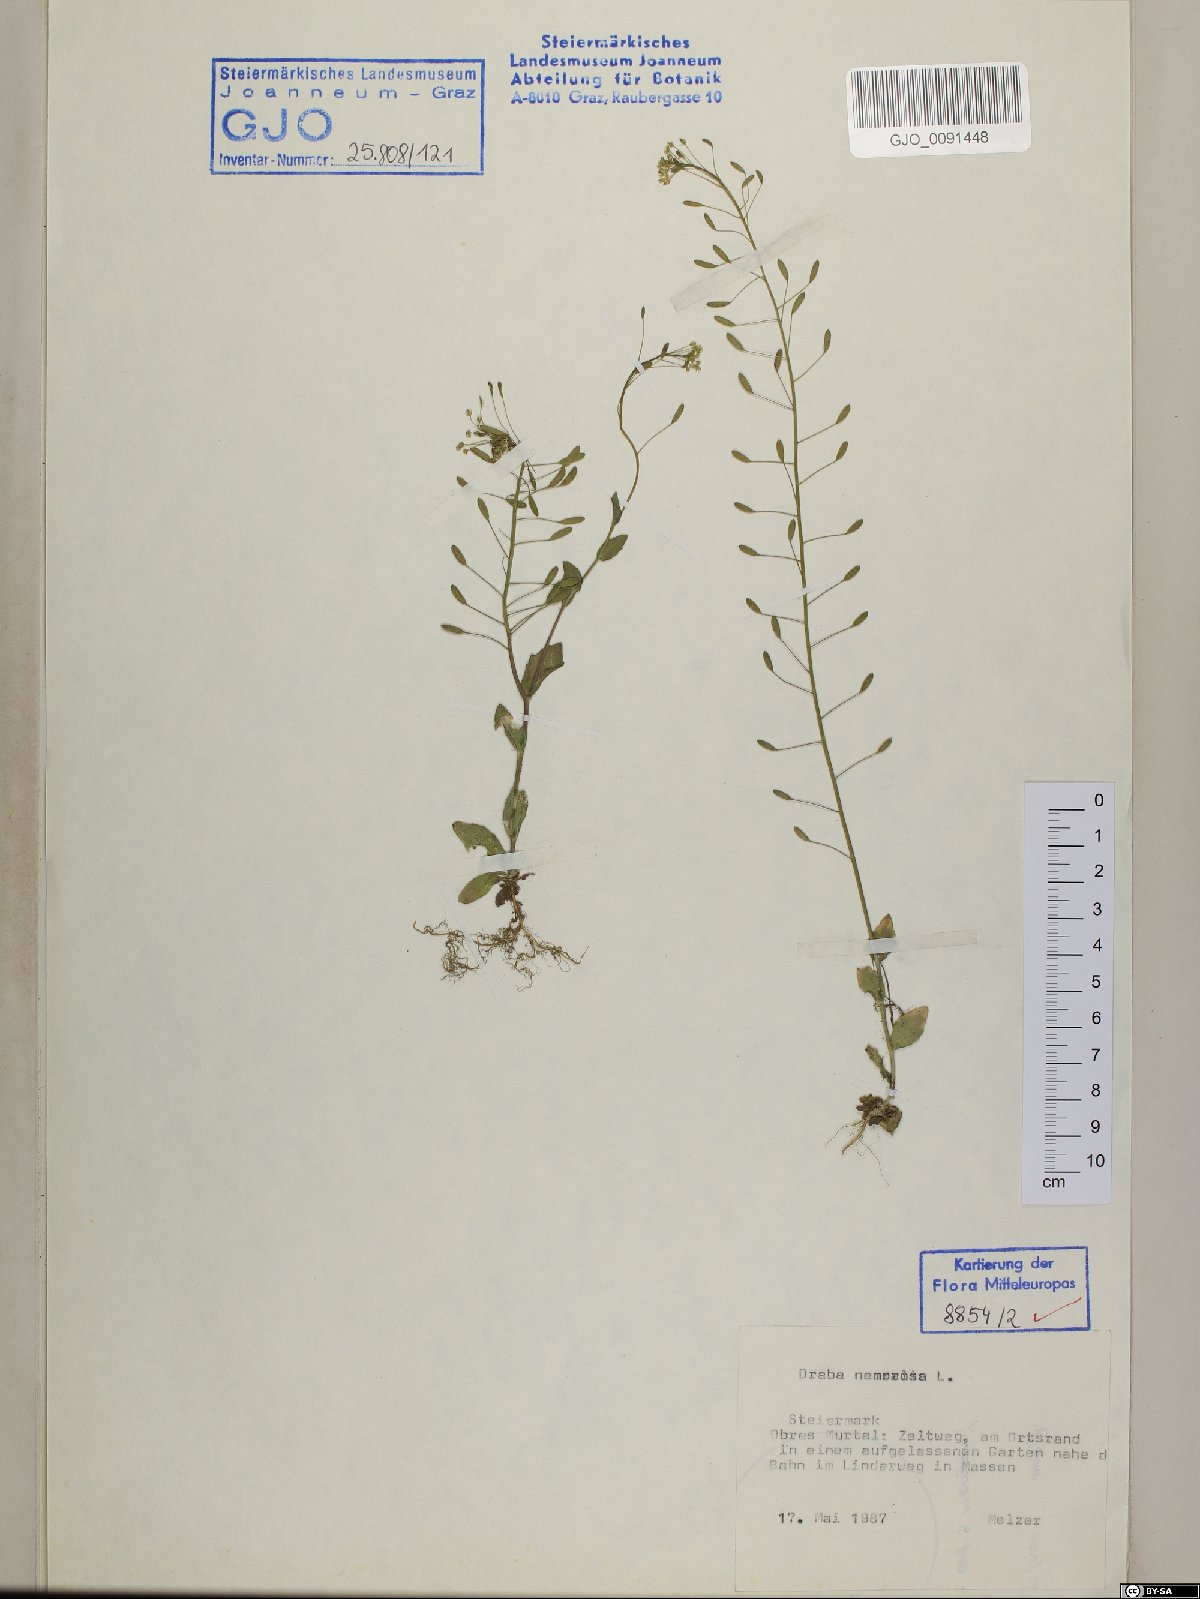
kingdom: Plantae
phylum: Tracheophyta
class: Magnoliopsida
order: Brassicales
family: Brassicaceae
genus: Draba
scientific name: Draba nemorosa
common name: Wood whitlow-grass
